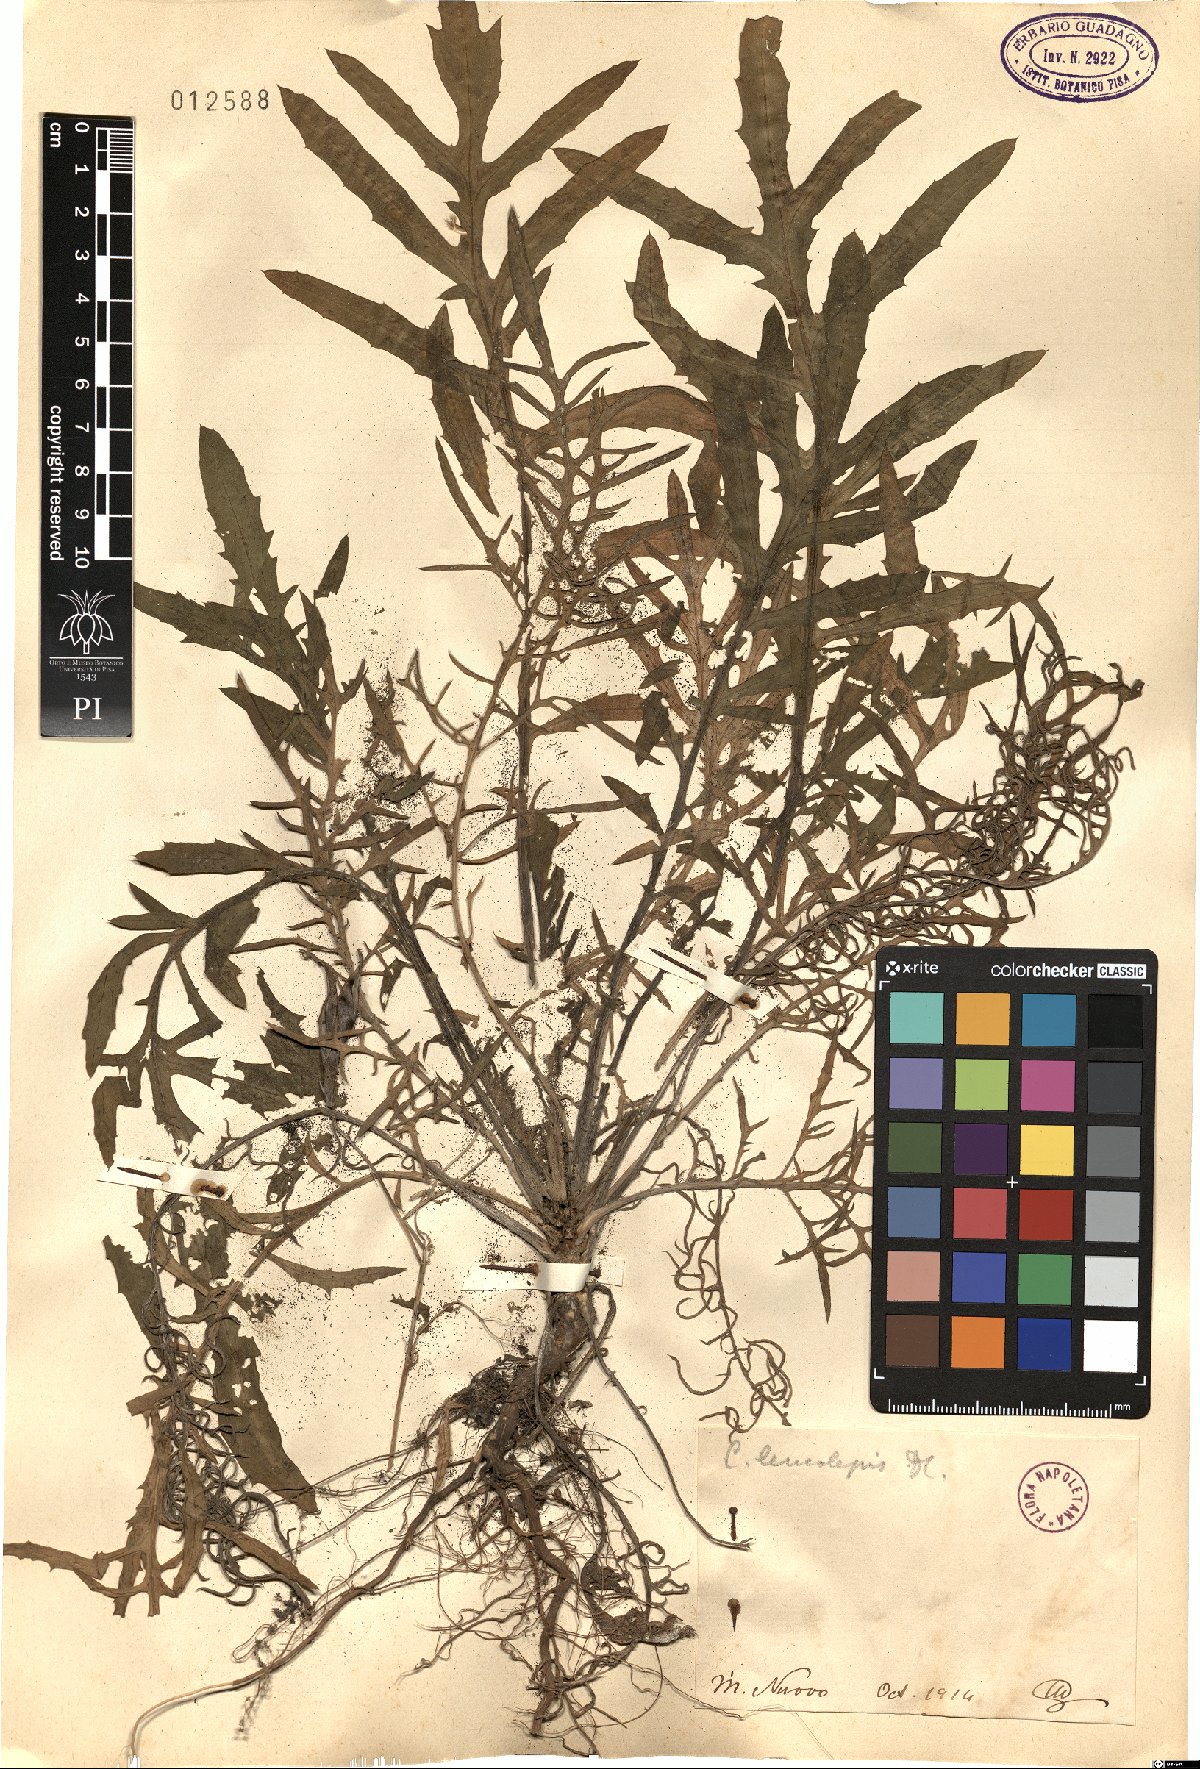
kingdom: Plantae
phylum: Tracheophyta
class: Magnoliopsida
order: Asterales
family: Asteraceae
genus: Centaurea
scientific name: Centaurea
